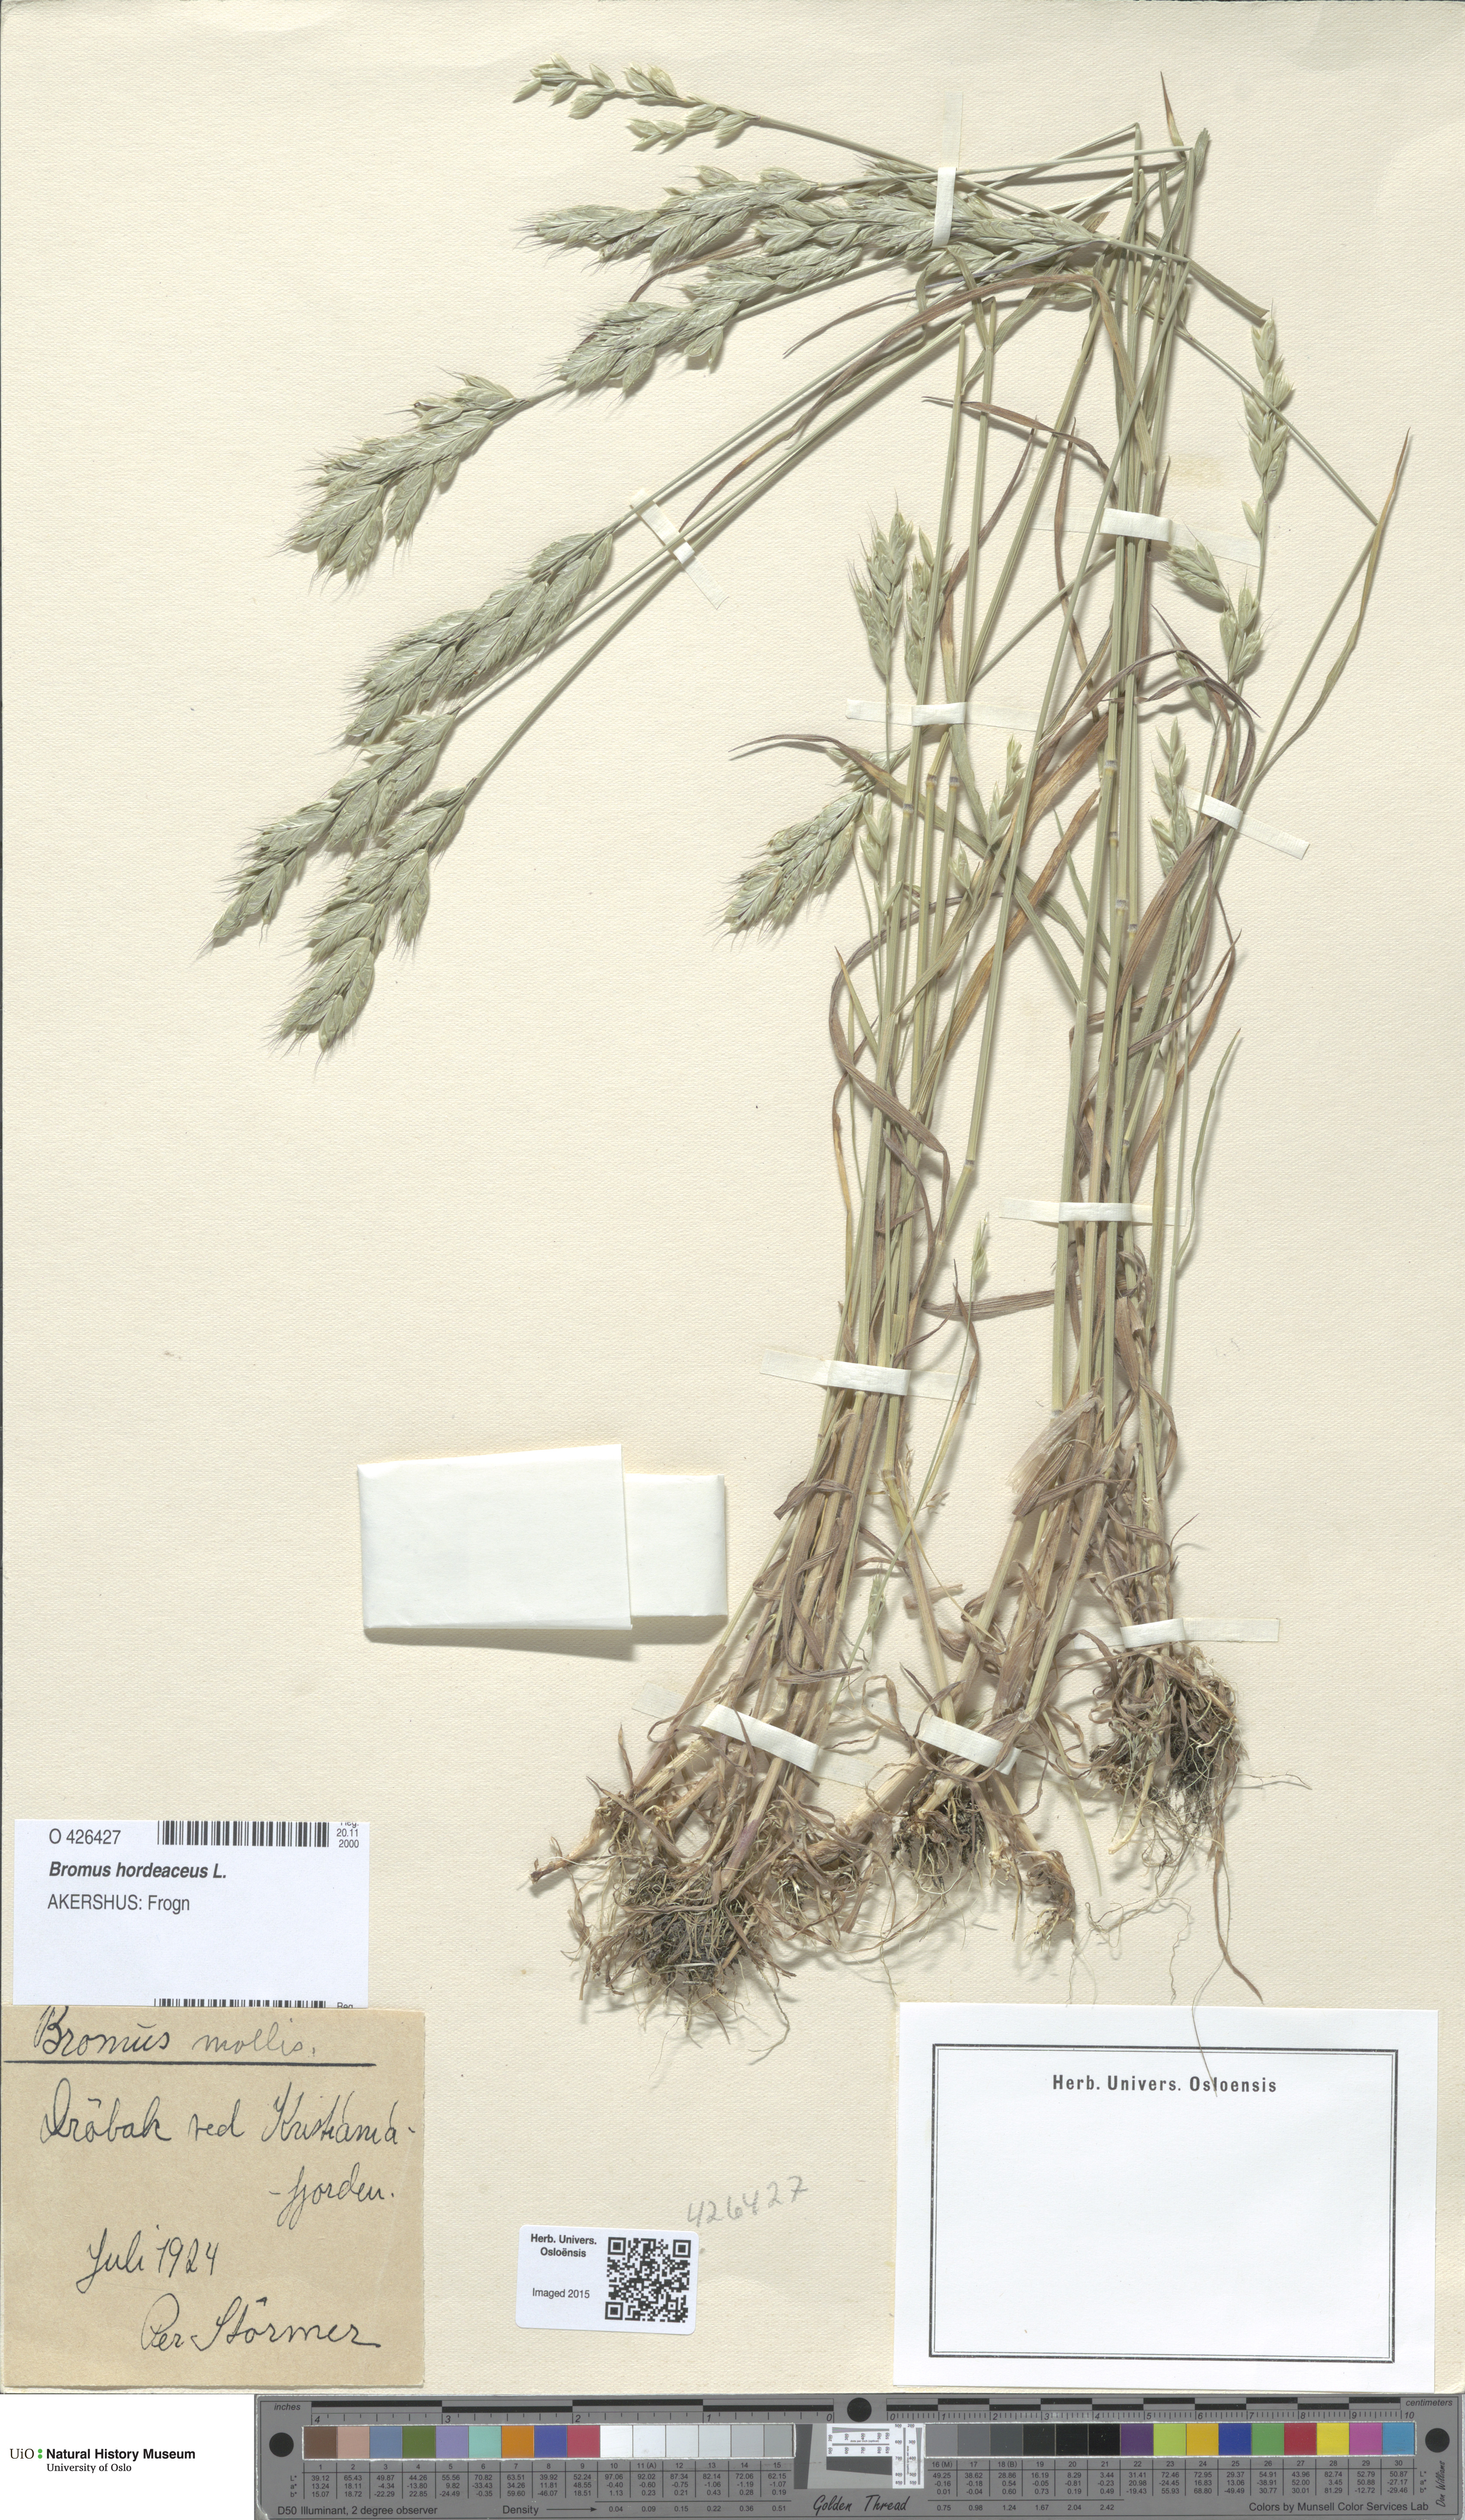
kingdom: Plantae
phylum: Tracheophyta
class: Liliopsida
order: Poales
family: Poaceae
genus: Bromus
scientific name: Bromus hordeaceus
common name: Soft brome
